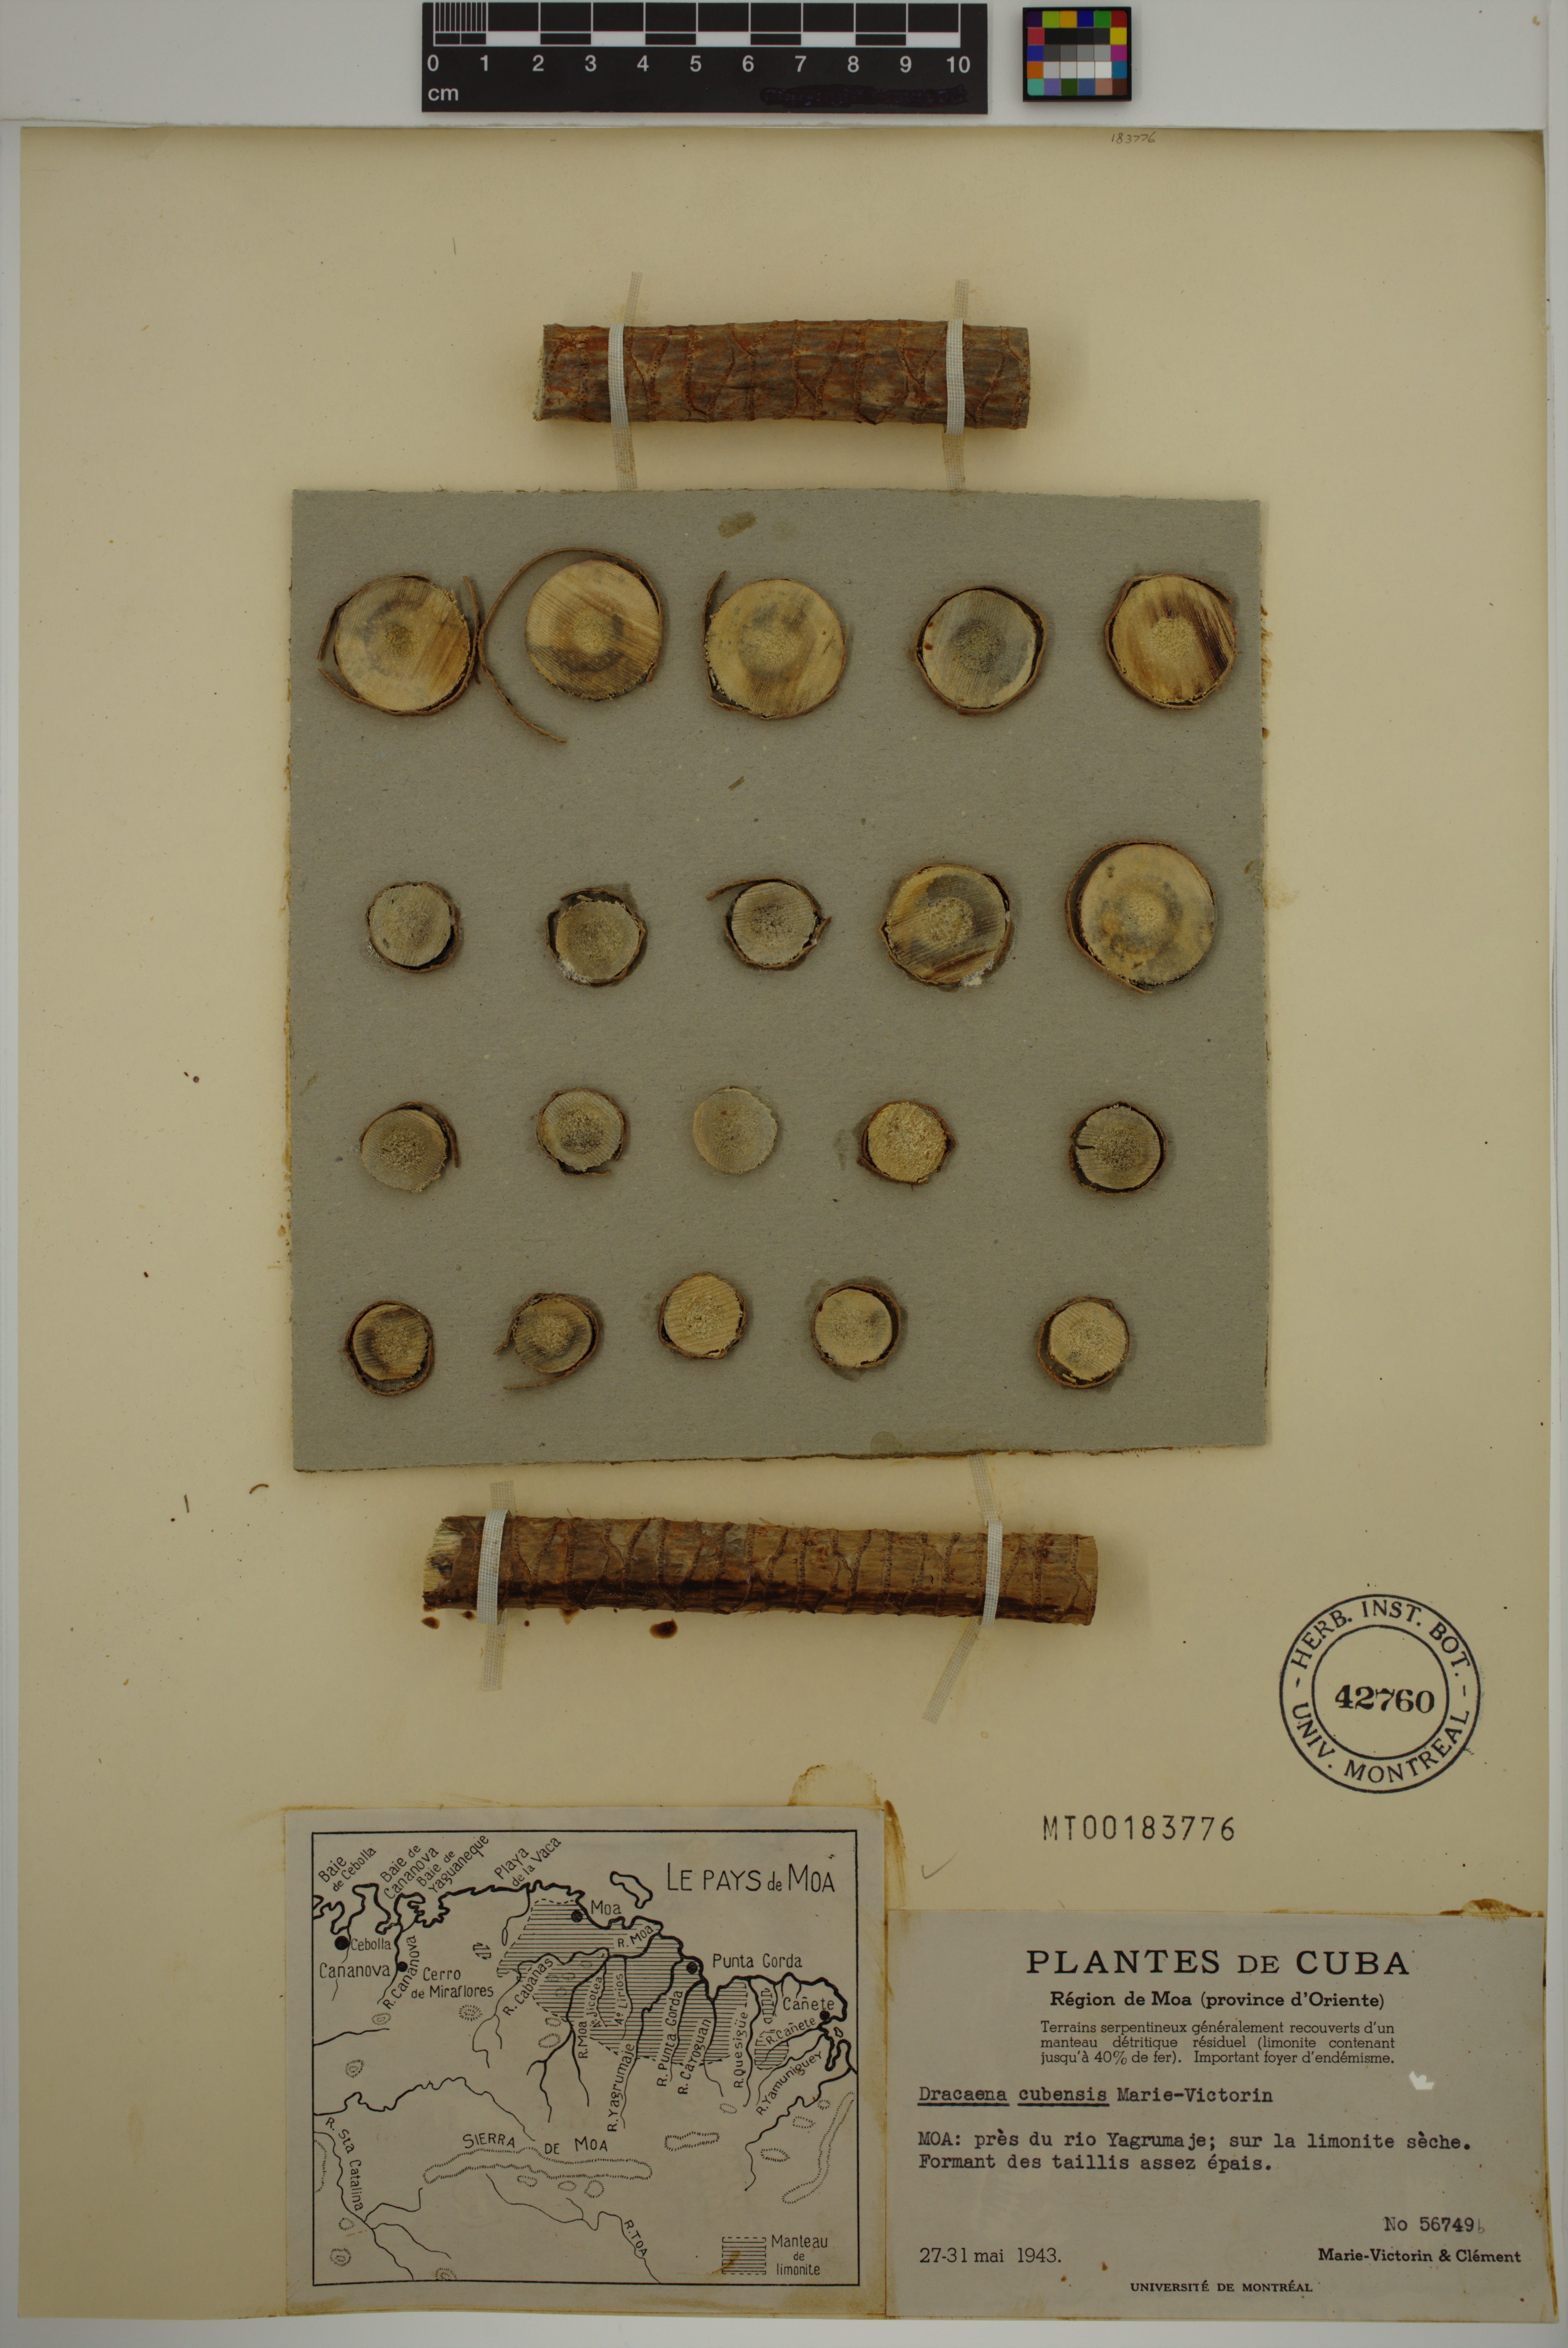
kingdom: Plantae
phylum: Tracheophyta
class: Liliopsida
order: Asparagales
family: Asparagaceae
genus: Dracaena
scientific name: Dracaena cubensis
